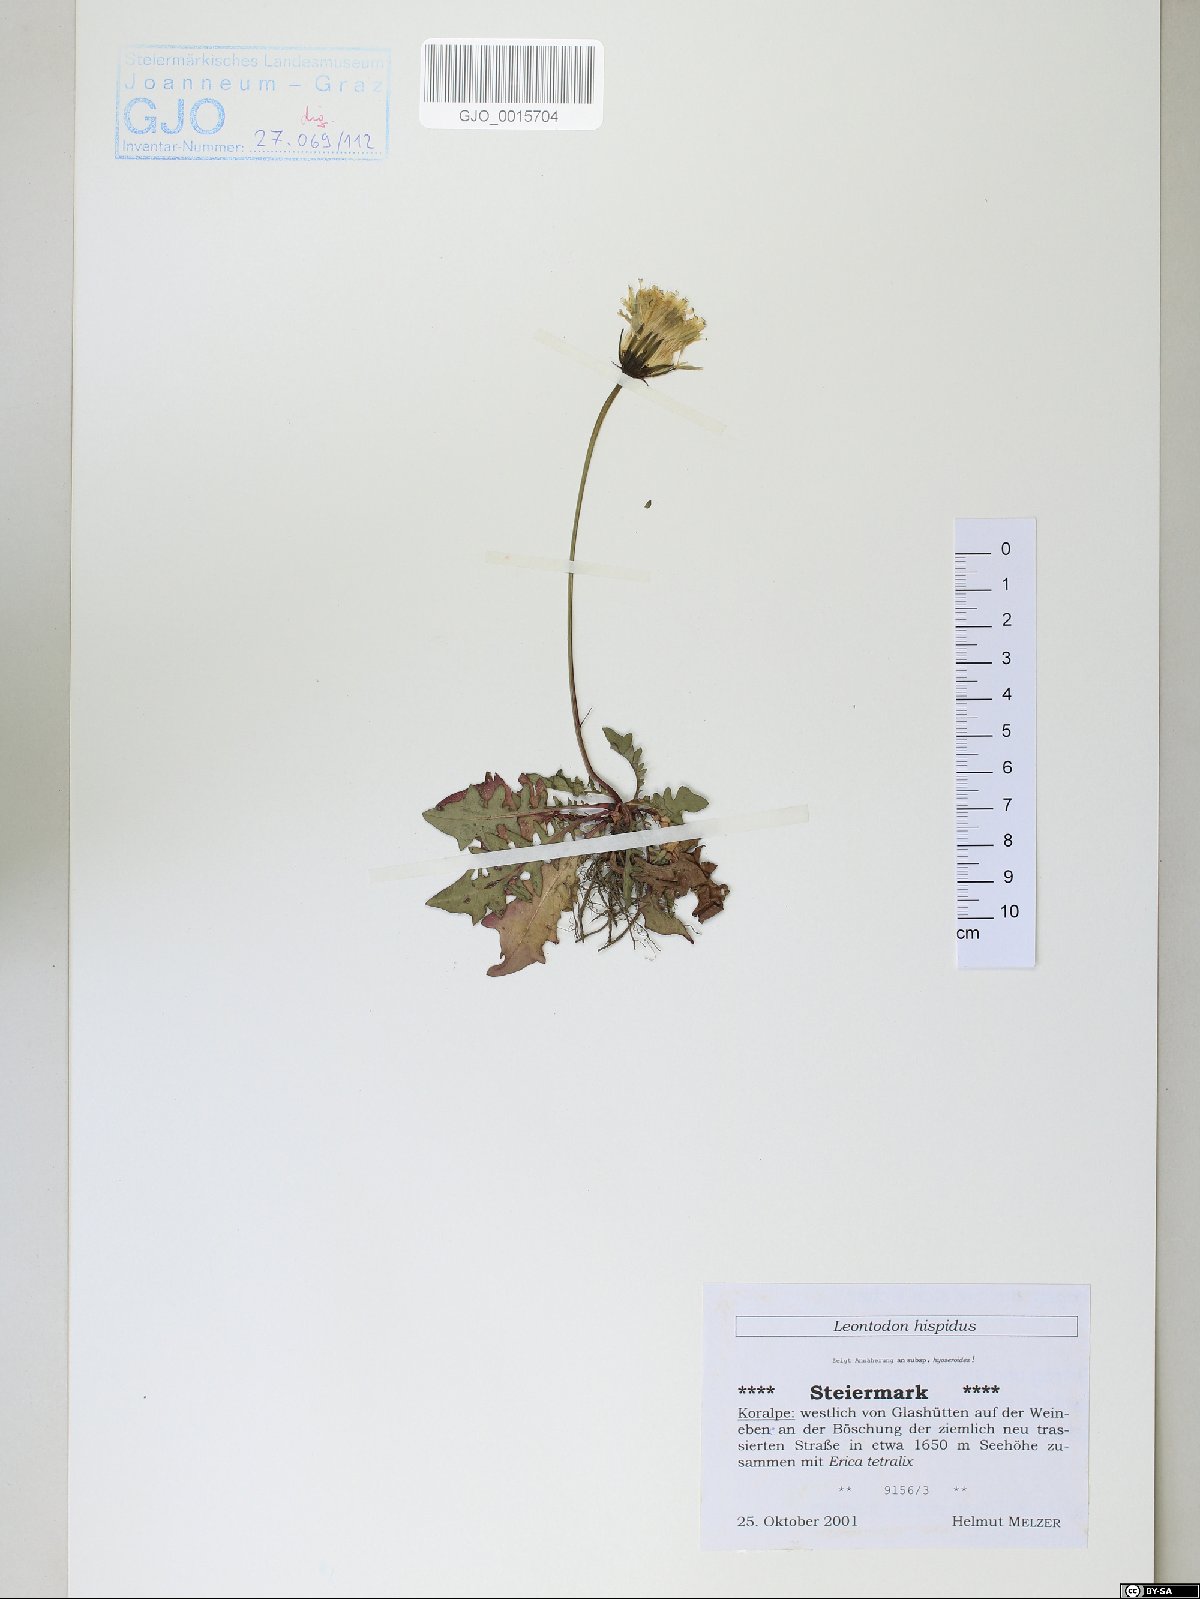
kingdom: Plantae
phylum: Tracheophyta
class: Magnoliopsida
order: Asterales
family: Asteraceae
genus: Leontodon
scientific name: Leontodon hispidus
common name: Rough hawkbit
